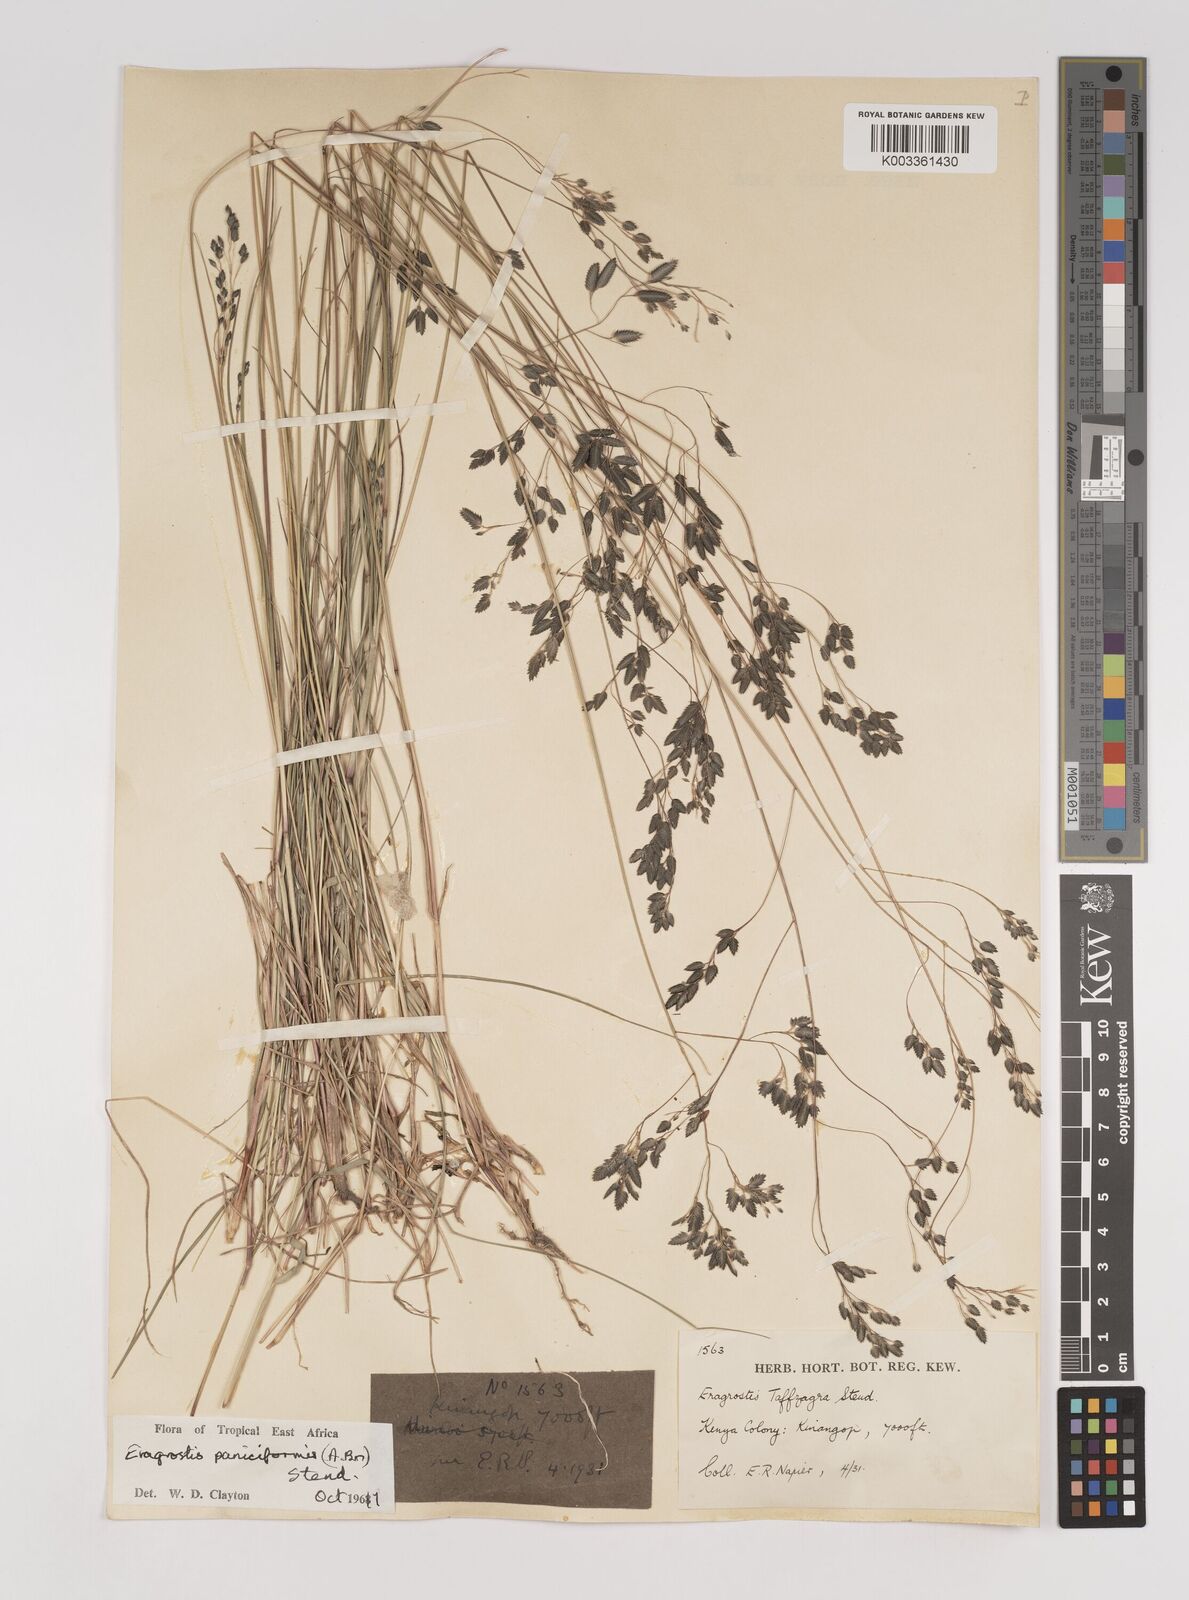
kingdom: Plantae
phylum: Tracheophyta
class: Liliopsida
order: Poales
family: Poaceae
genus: Eragrostis
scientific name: Eragrostis paniciformis
